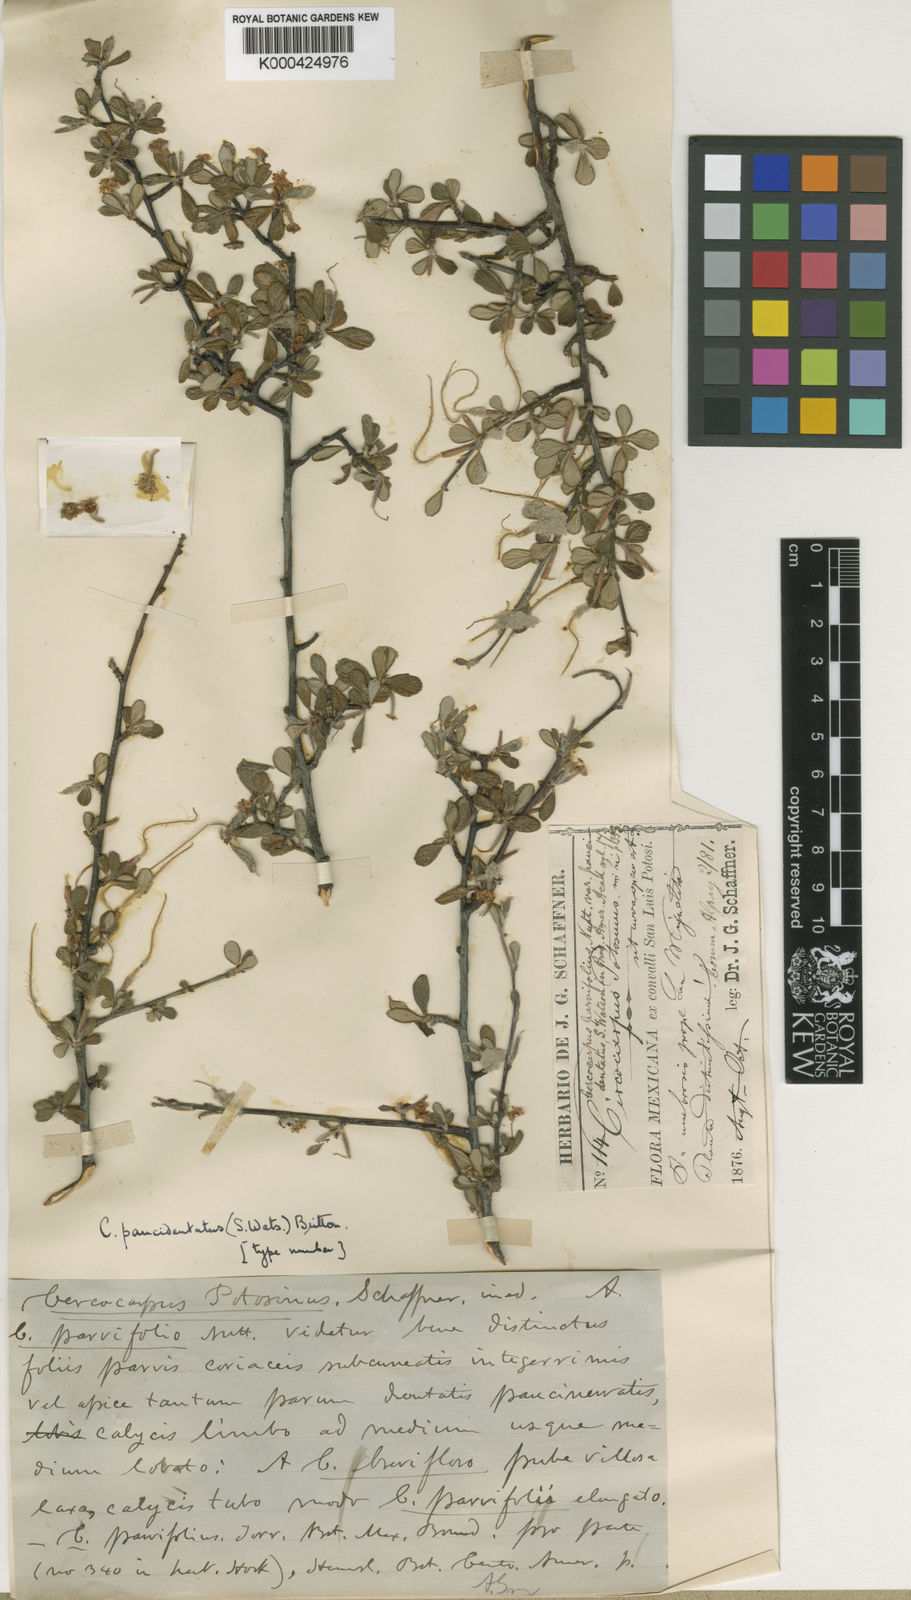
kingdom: Plantae
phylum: Tracheophyta
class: Magnoliopsida
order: Rosales
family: Rosaceae
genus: Cercocarpus
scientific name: Cercocarpus breviflorus
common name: Wright's mountain-mahogany
